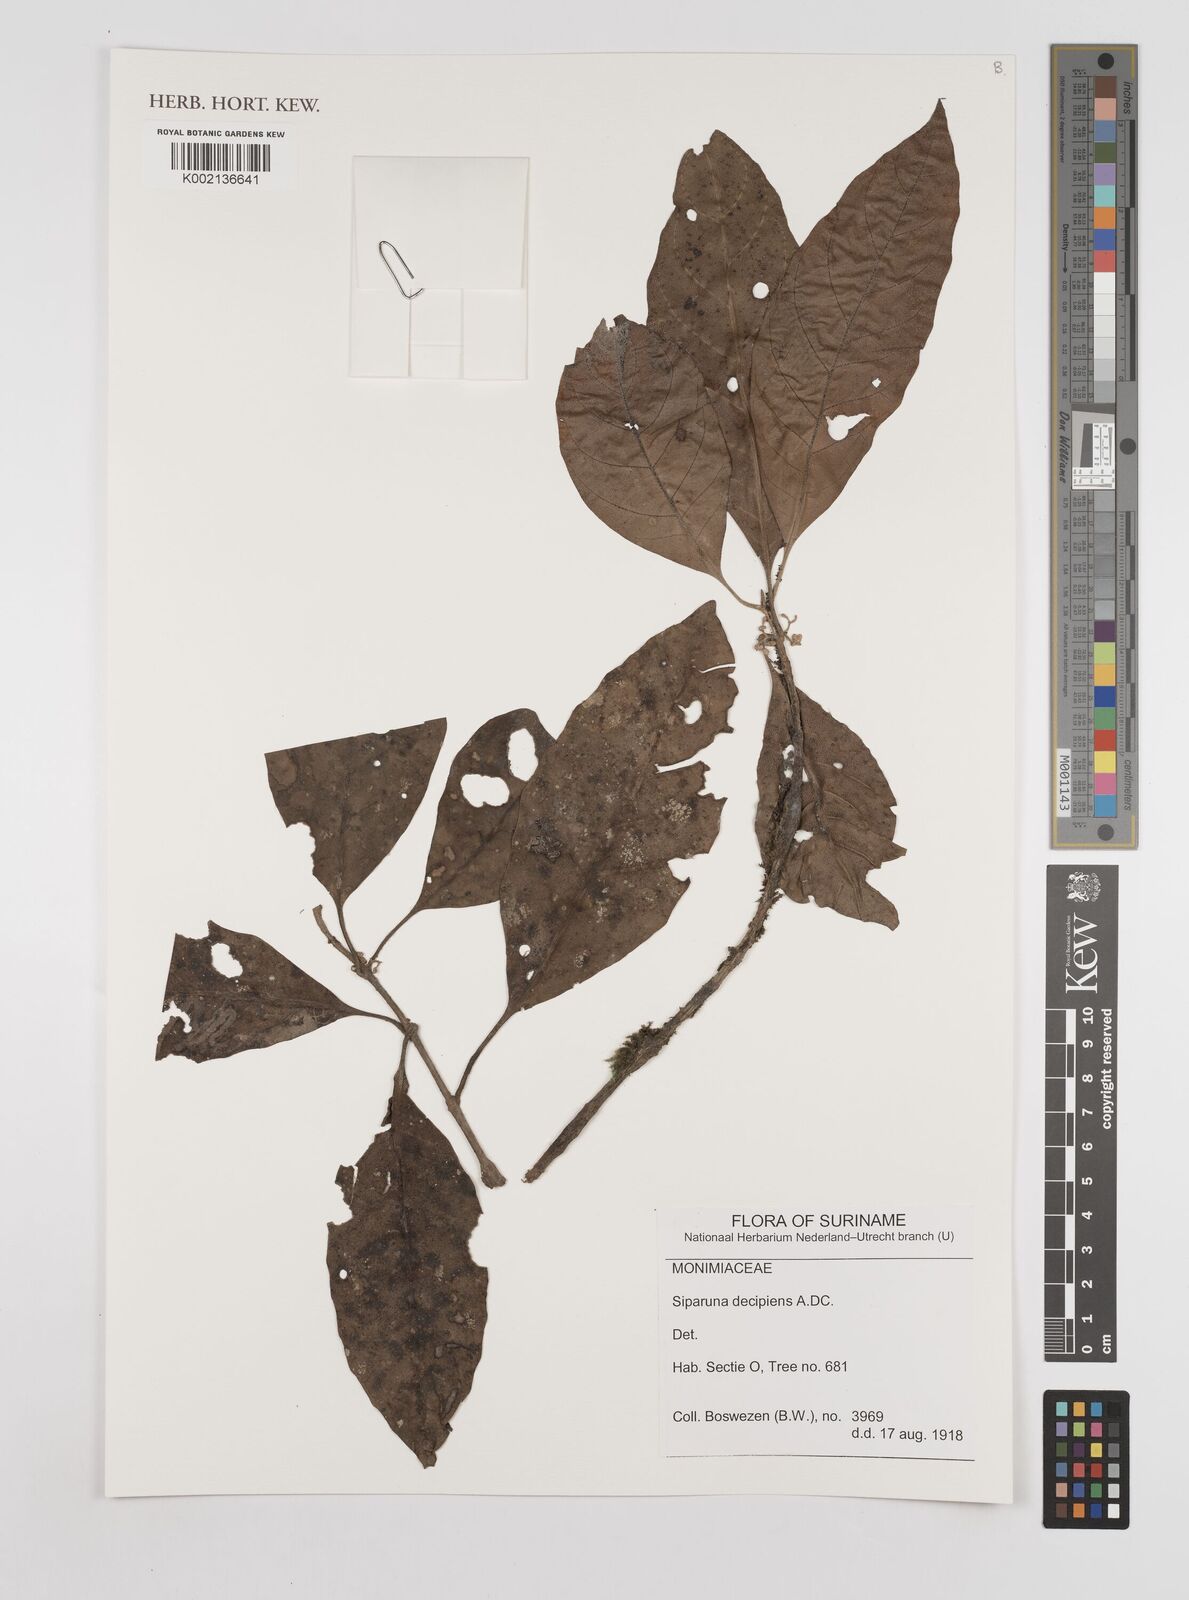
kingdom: Plantae
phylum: Tracheophyta
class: Magnoliopsida
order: Laurales
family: Siparunaceae
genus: Siparuna
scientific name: Siparuna decipiens
